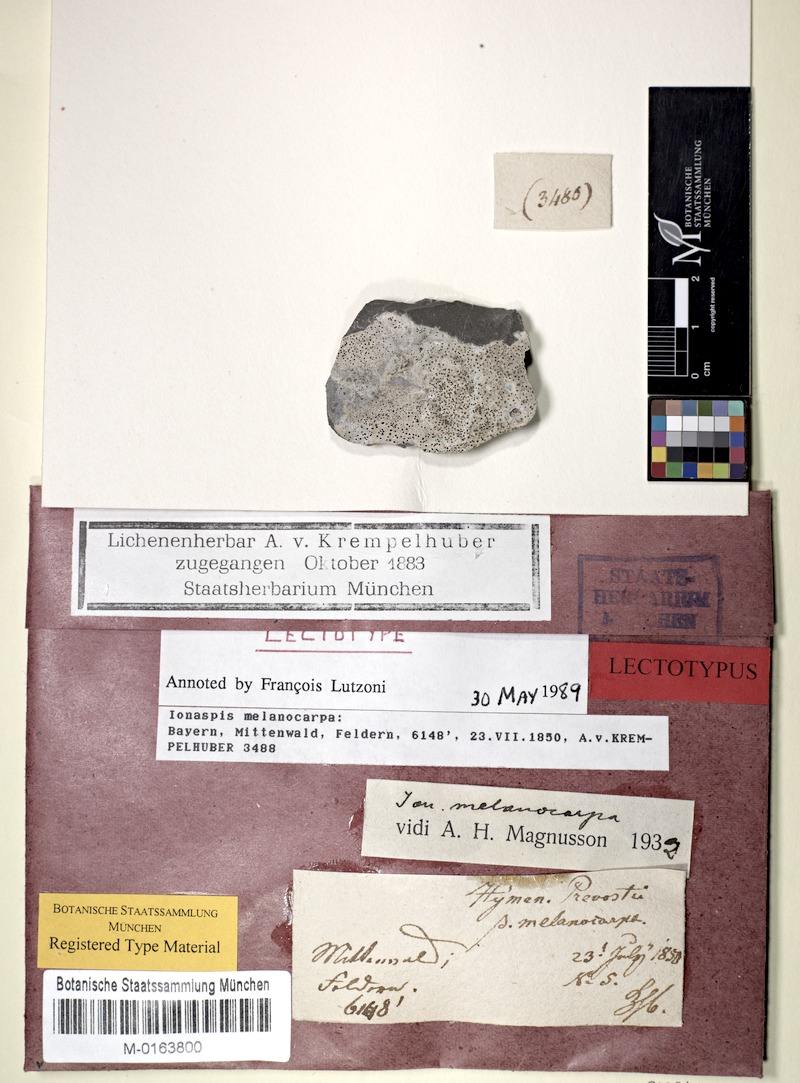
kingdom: Fungi
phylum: Ascomycota
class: Lecanoromycetes
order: Hymeneliales
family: Hymeneliaceae
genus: Hymenelia
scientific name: Hymenelia melanocarpa
